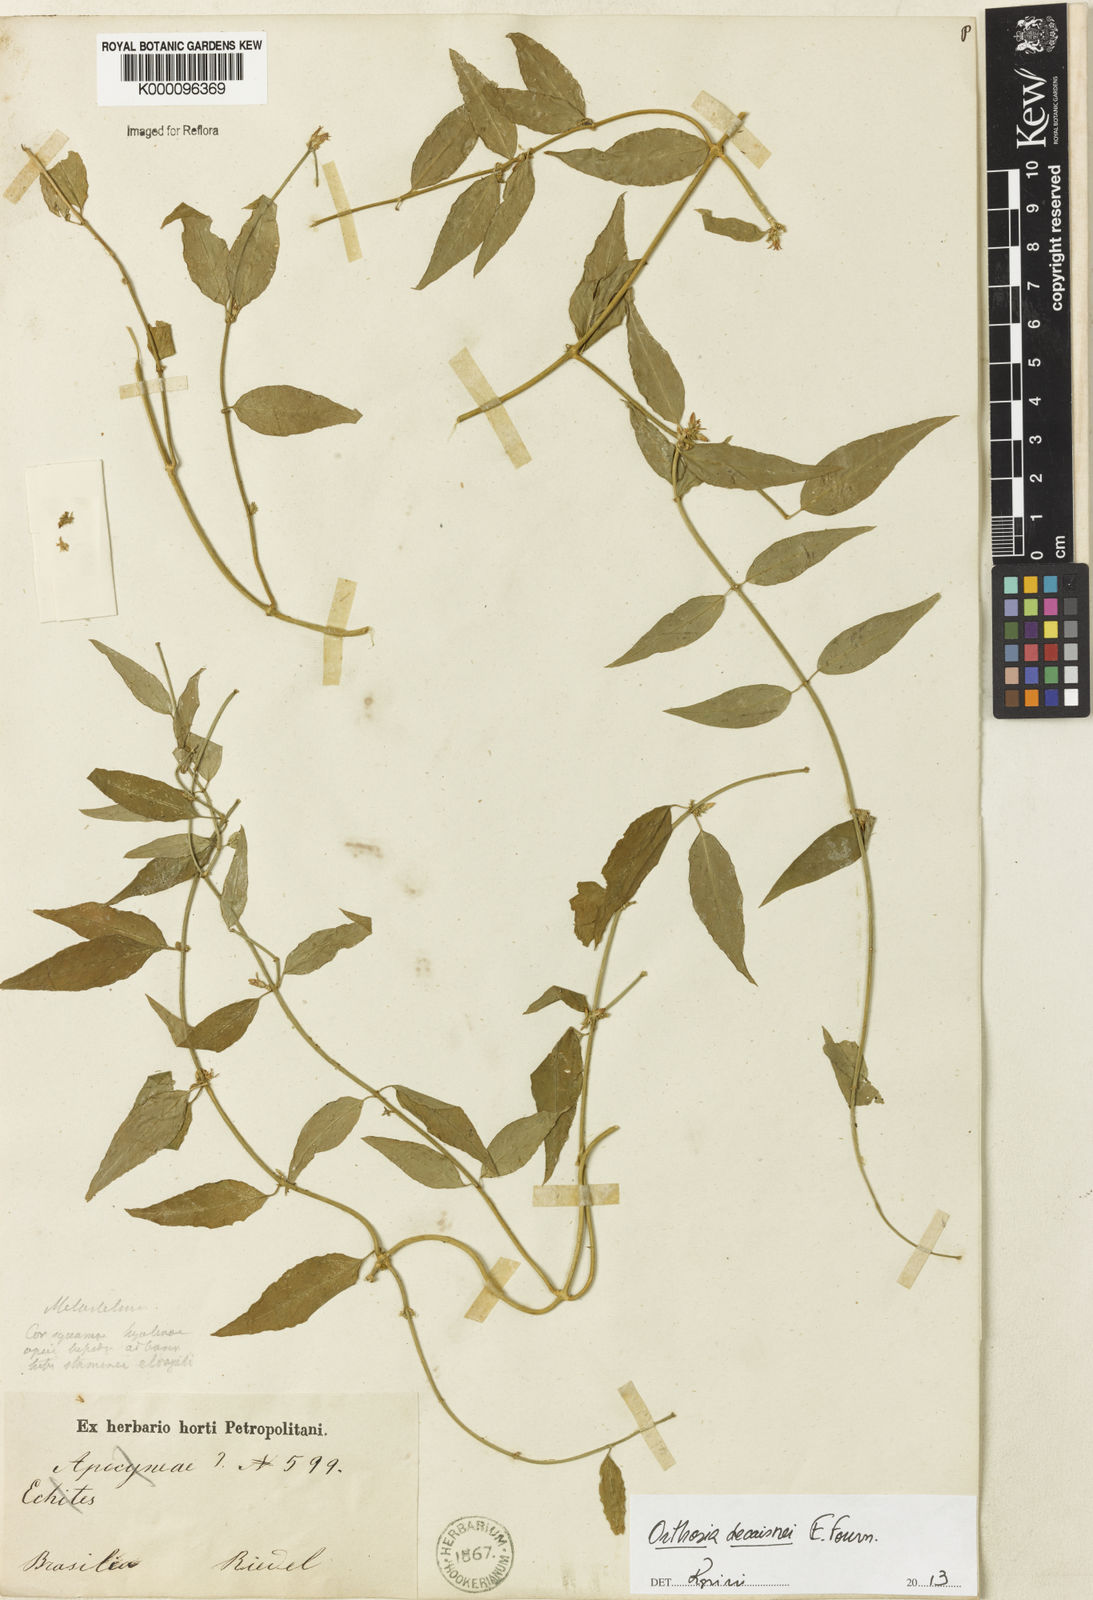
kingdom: Plantae
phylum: Tracheophyta
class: Magnoliopsida
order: Gentianales
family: Apocynaceae
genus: Orthosia
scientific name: Orthosia urceolata
